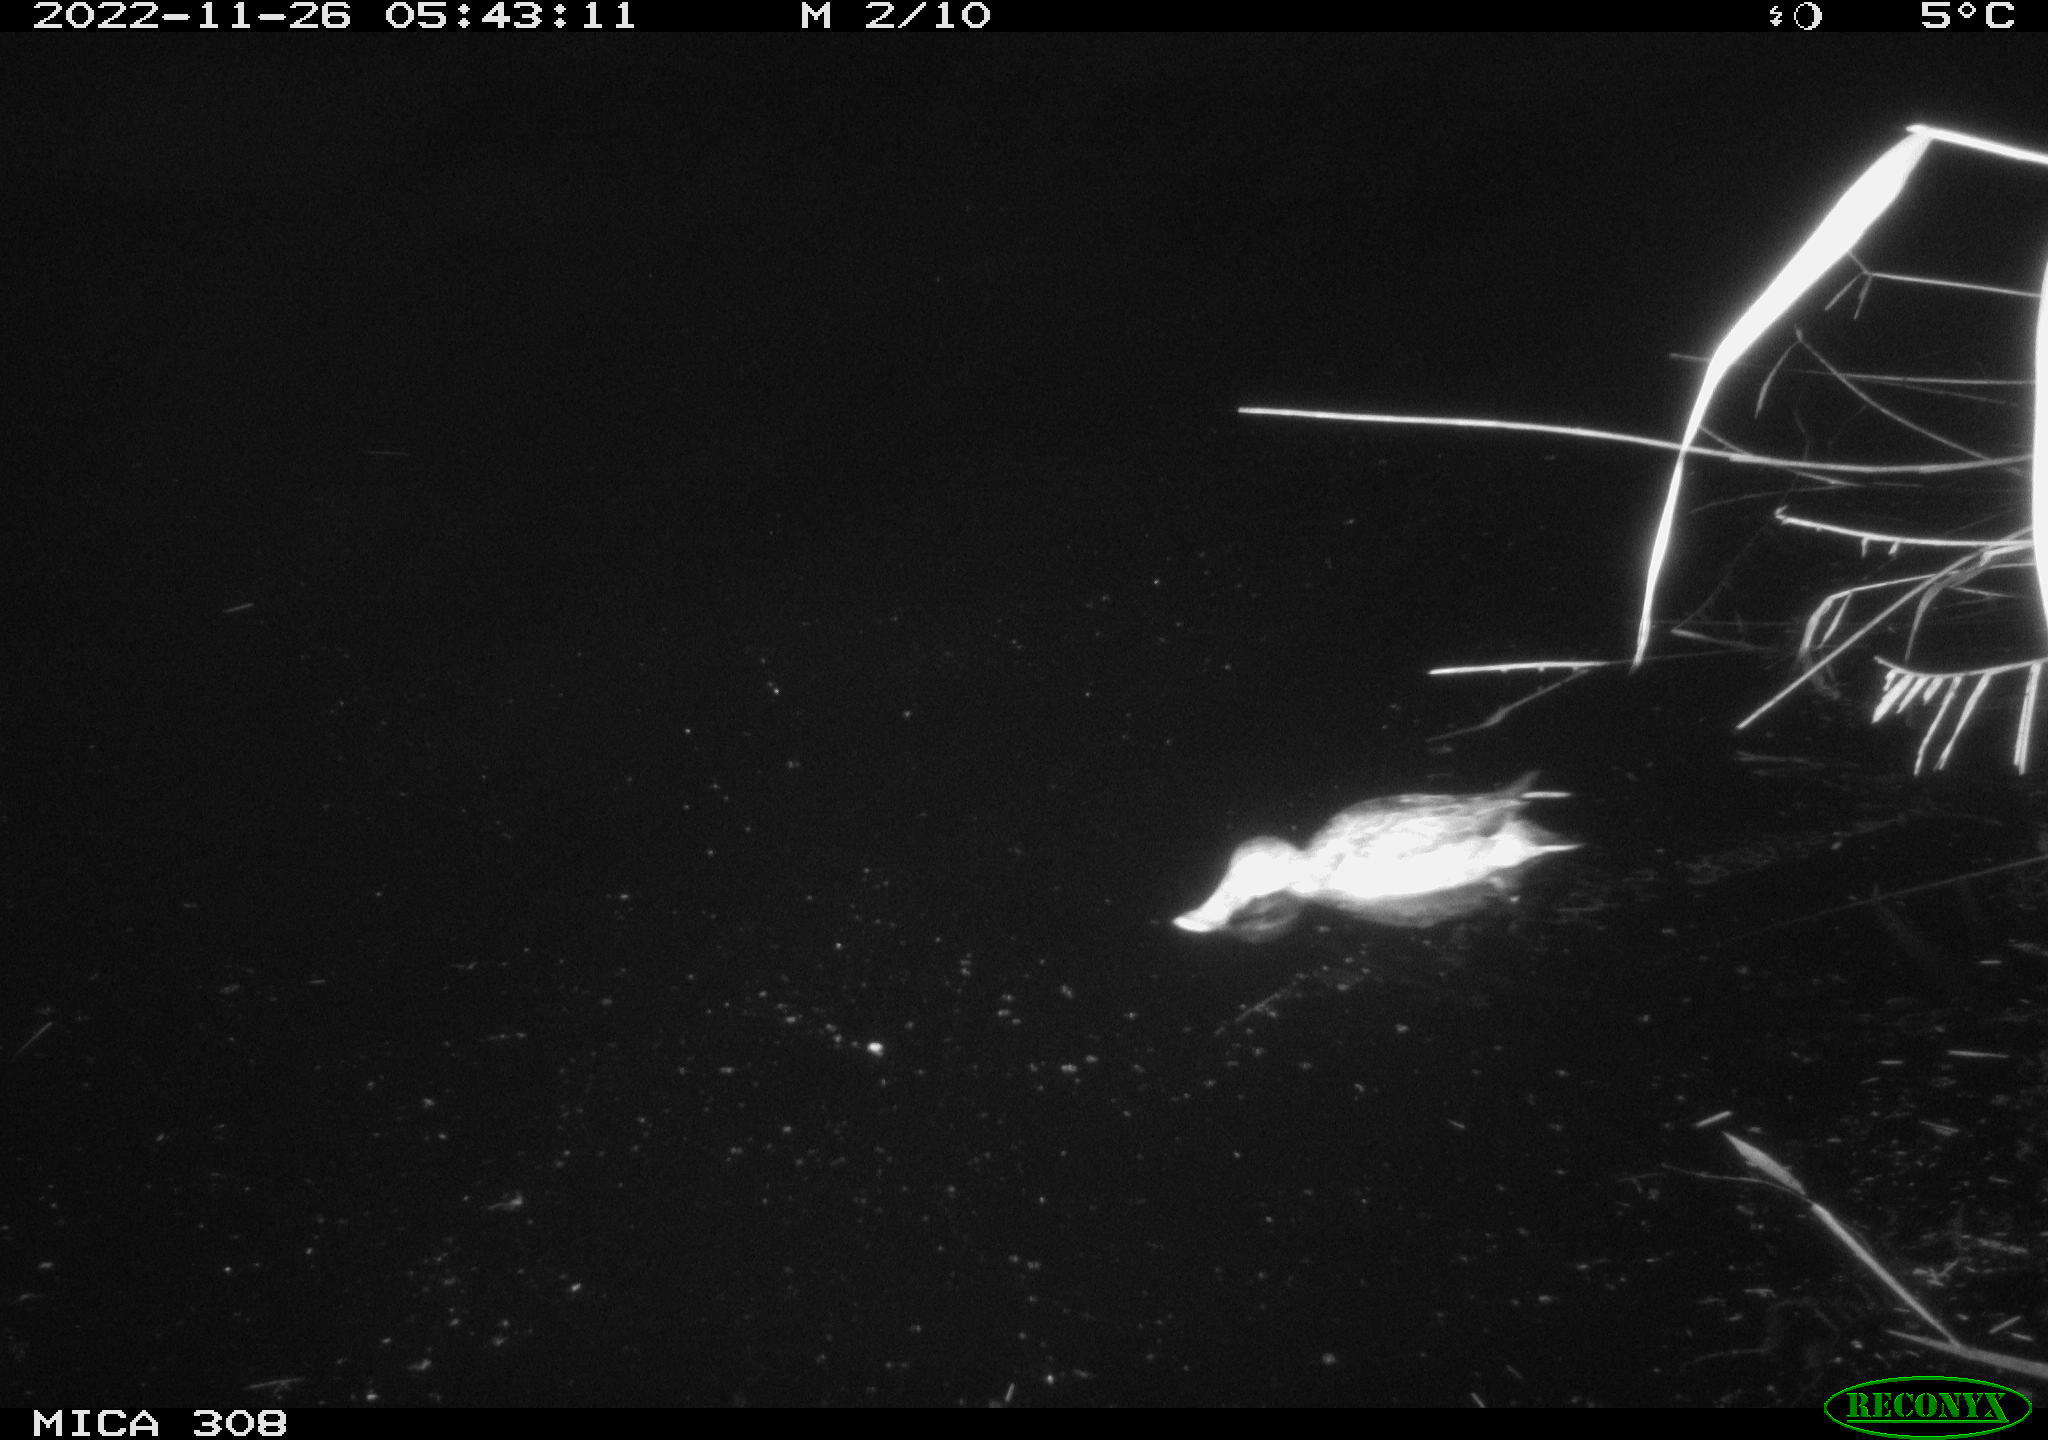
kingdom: Animalia
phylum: Chordata
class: Aves
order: Anseriformes
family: Anatidae
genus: Anas
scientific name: Anas
